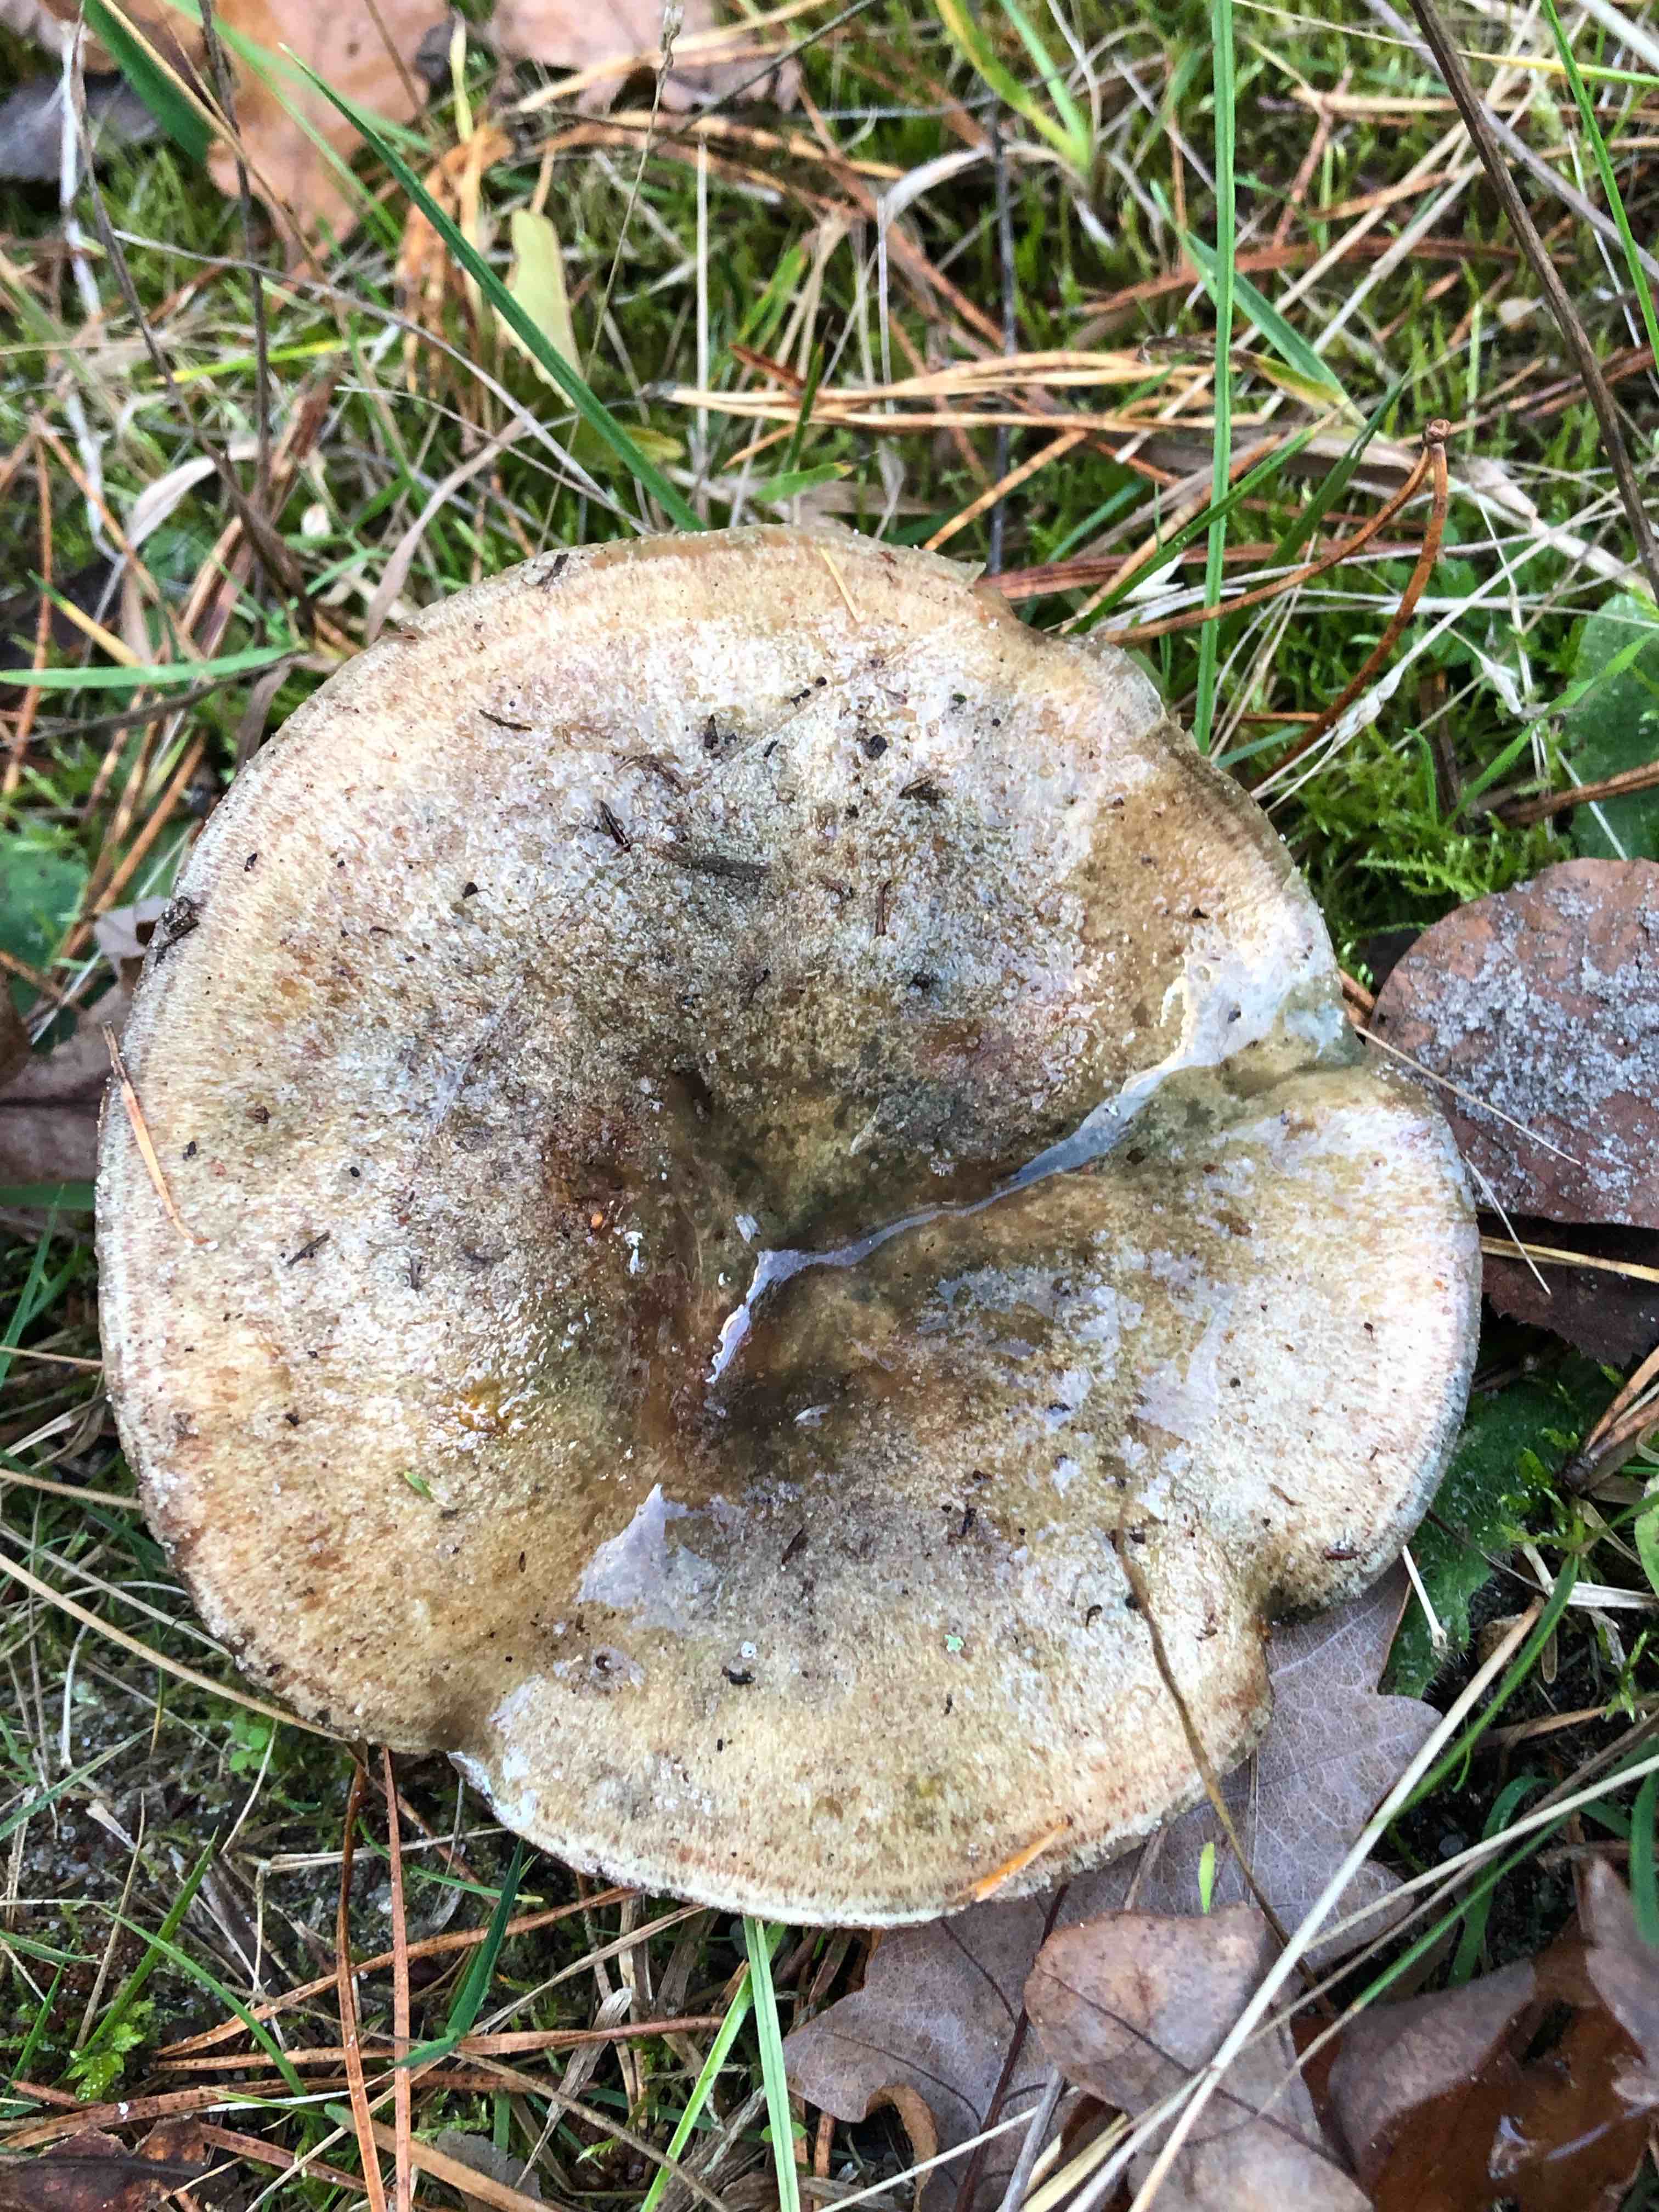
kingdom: Fungi
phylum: Basidiomycota
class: Agaricomycetes
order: Russulales
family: Russulaceae
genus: Lactarius
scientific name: Lactarius quieticolor
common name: tvefarvet mælkehat
